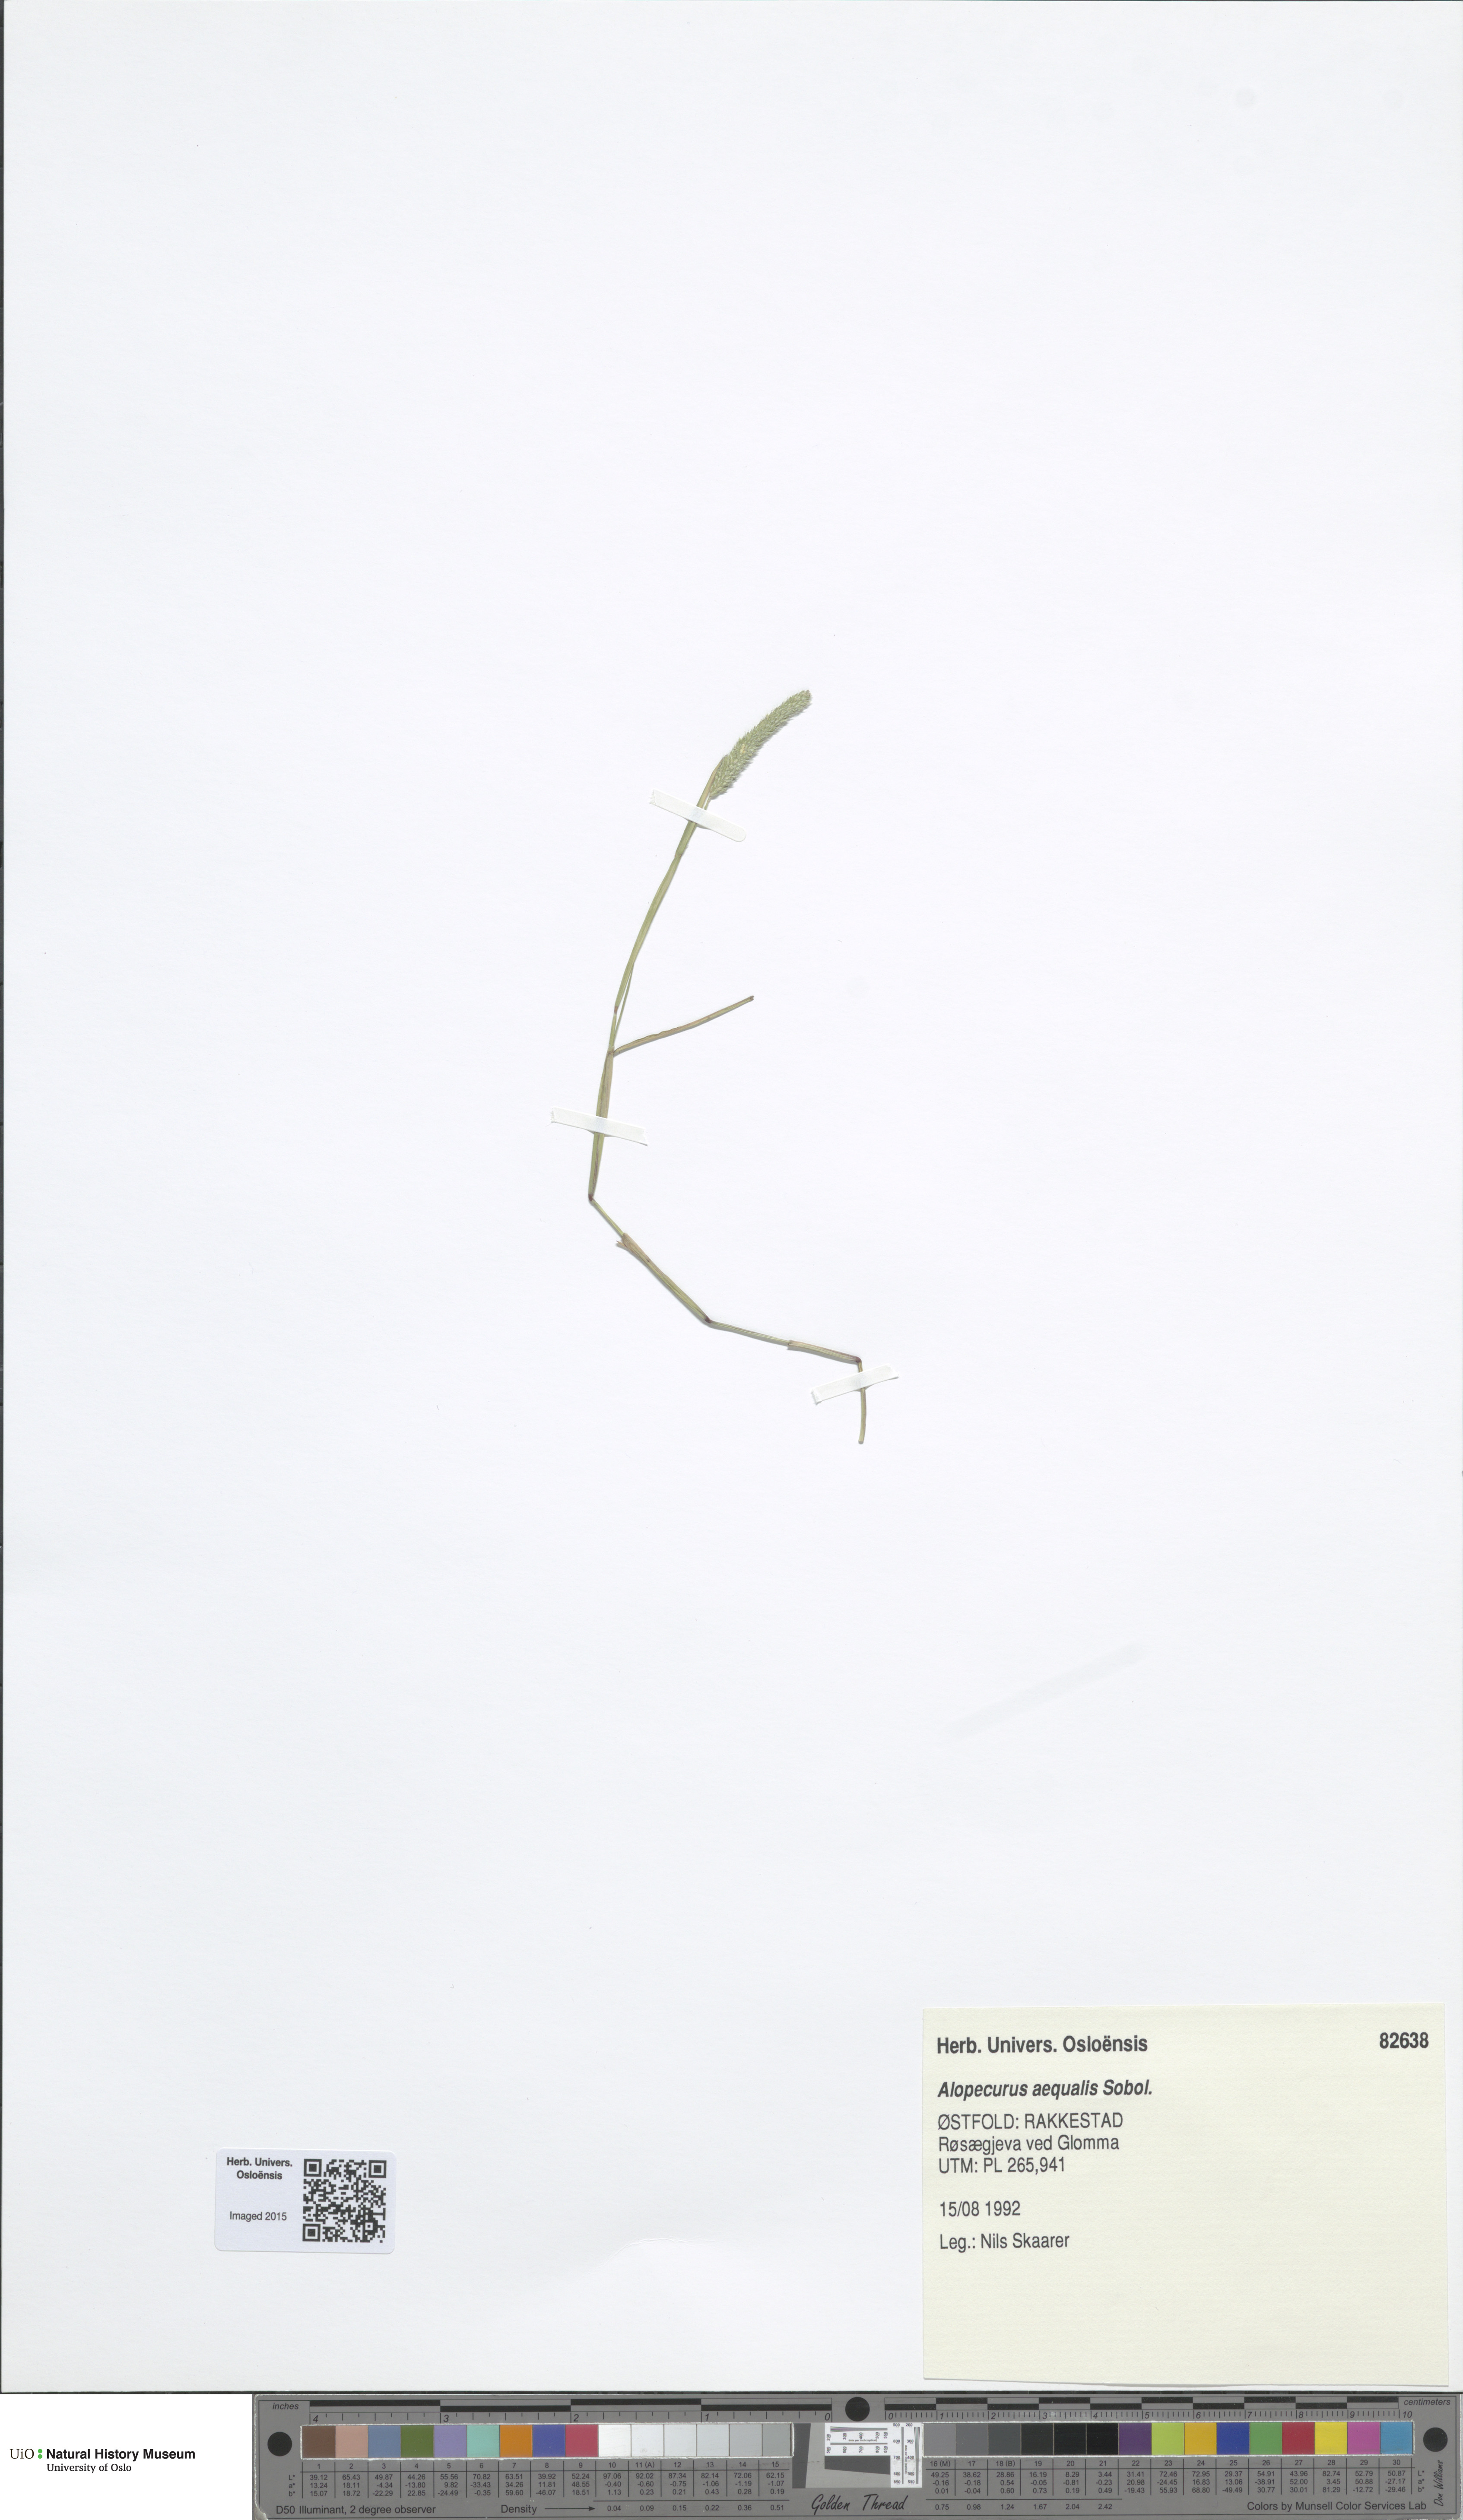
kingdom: Plantae
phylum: Tracheophyta
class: Liliopsida
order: Poales
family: Poaceae
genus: Alopecurus
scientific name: Alopecurus aequalis
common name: Orange foxtail
